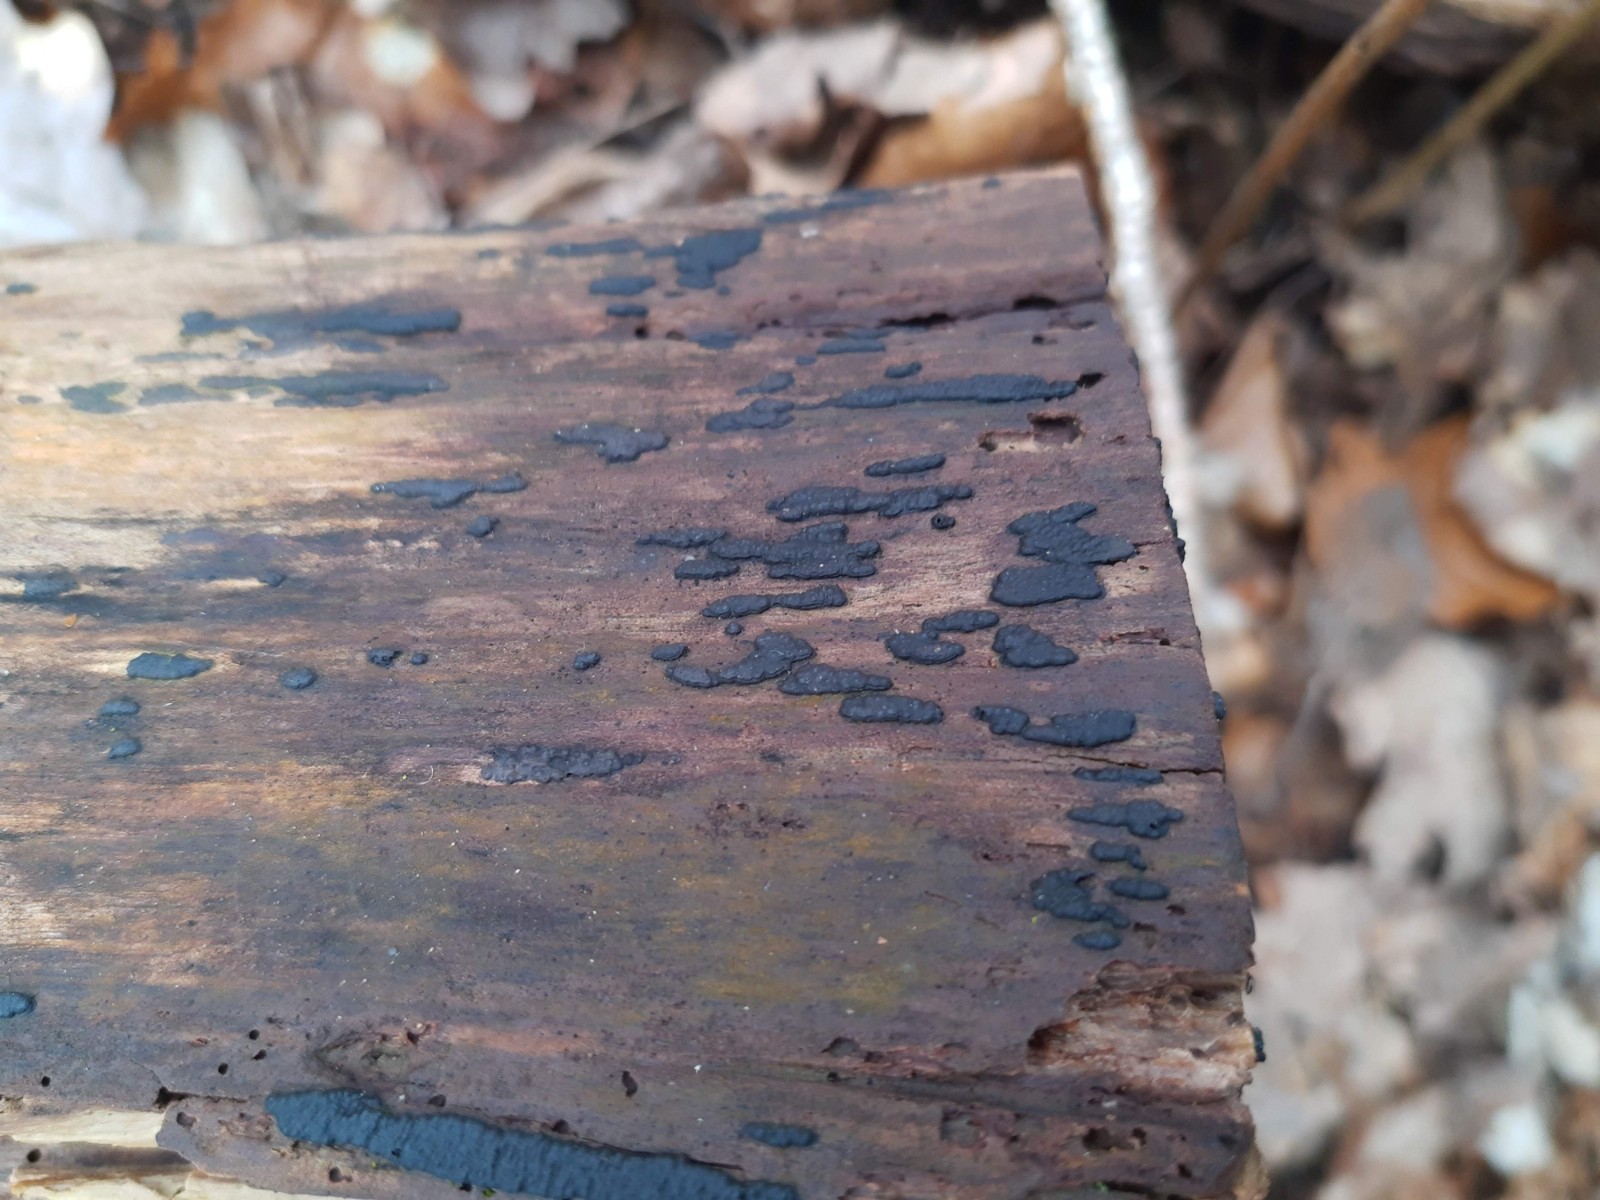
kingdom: Fungi
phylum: Ascomycota
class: Sordariomycetes
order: Xylariales
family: Xylariaceae
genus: Nemania
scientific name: Nemania serpens
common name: almindelig kuldyne
